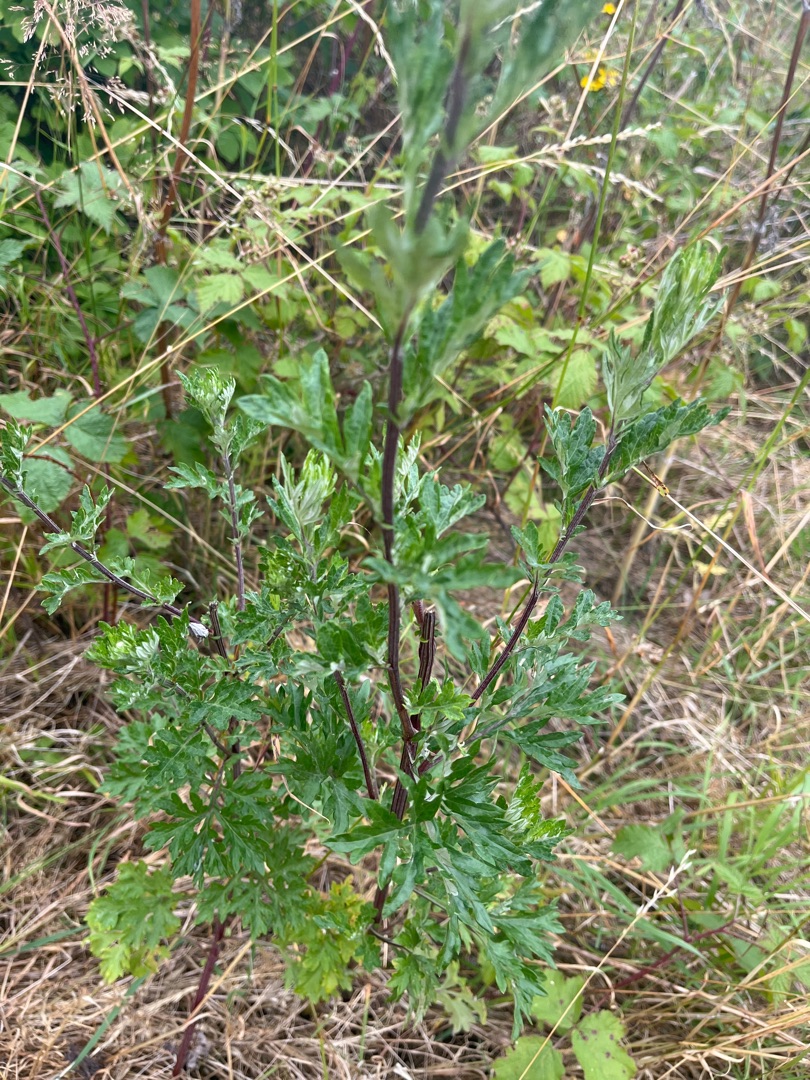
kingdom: Plantae
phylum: Tracheophyta
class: Magnoliopsida
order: Asterales
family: Asteraceae
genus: Artemisia
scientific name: Artemisia vulgaris
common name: Grå-bynke
